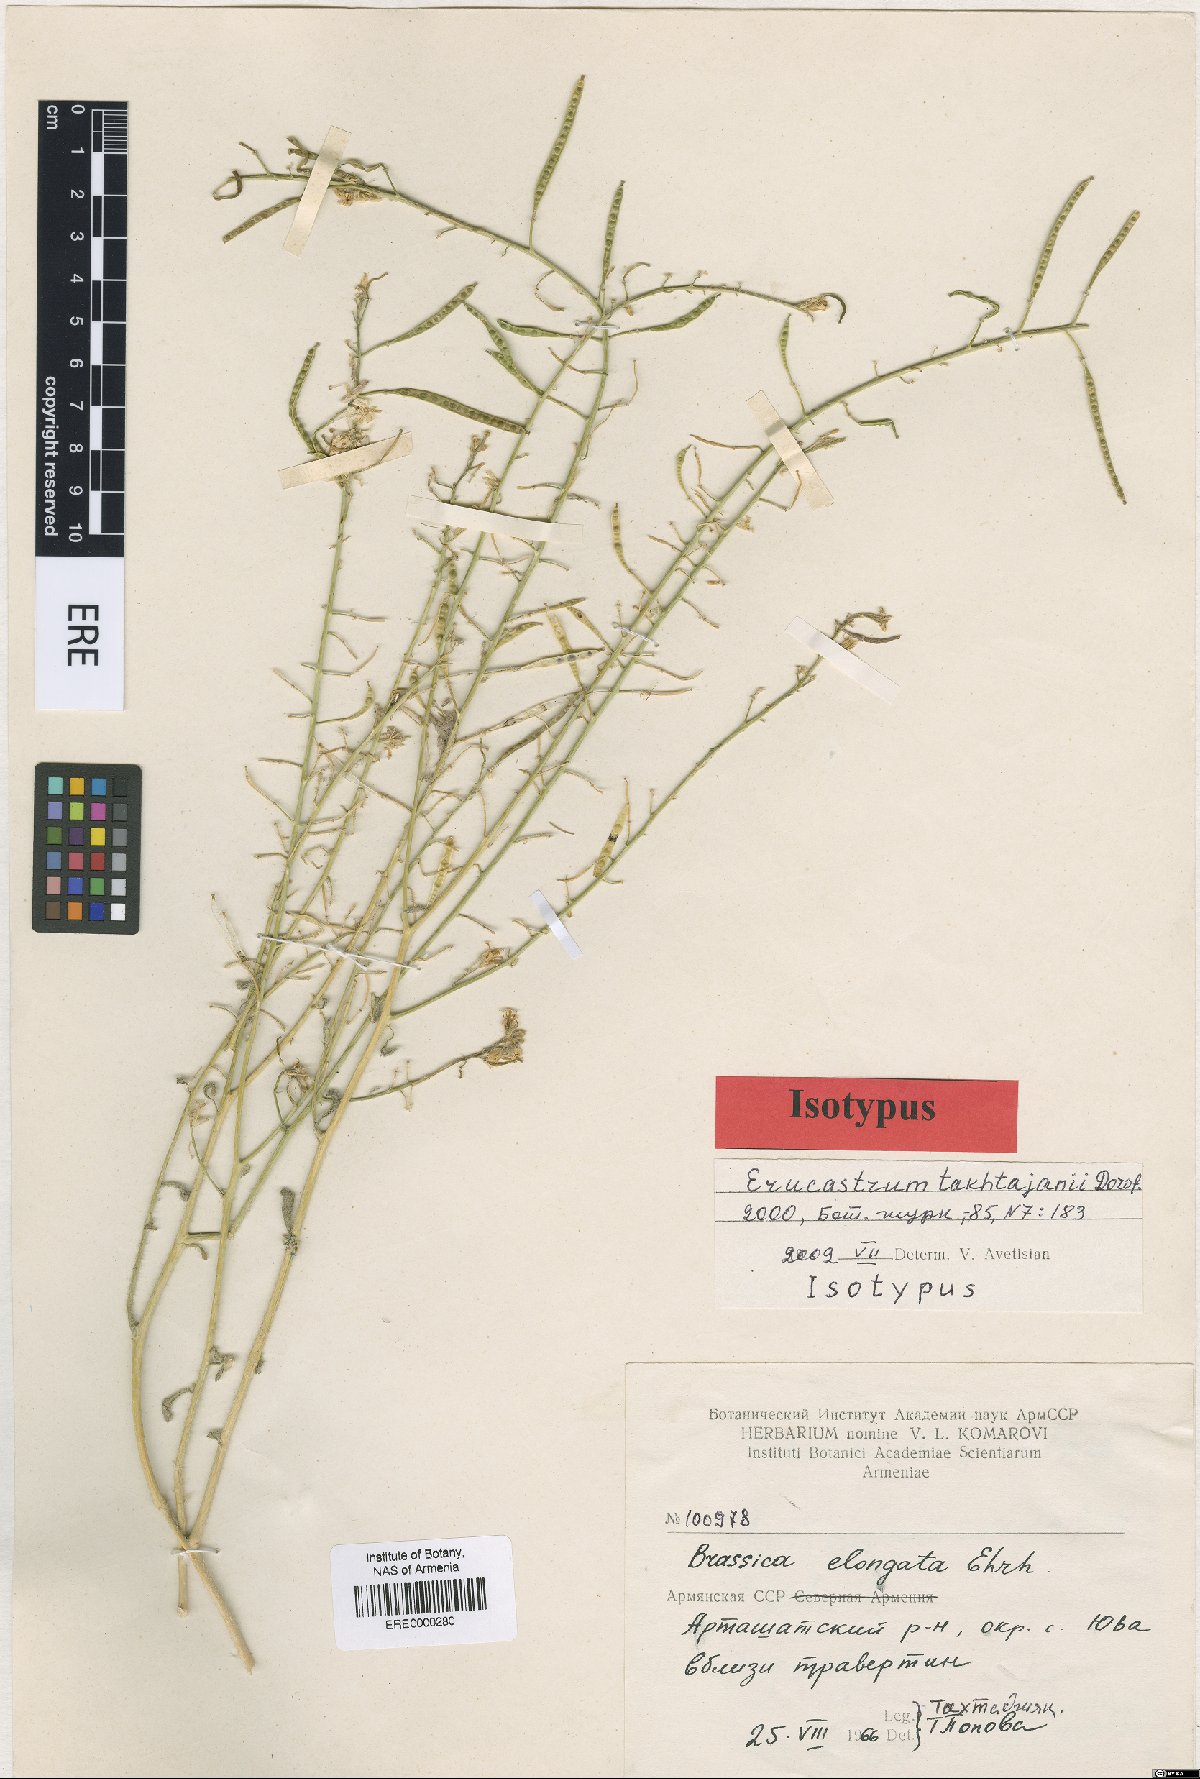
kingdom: Plantae
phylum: Tracheophyta
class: Magnoliopsida
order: Brassicales
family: Brassicaceae
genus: Erucastrum
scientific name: Erucastrum takhtajanii
